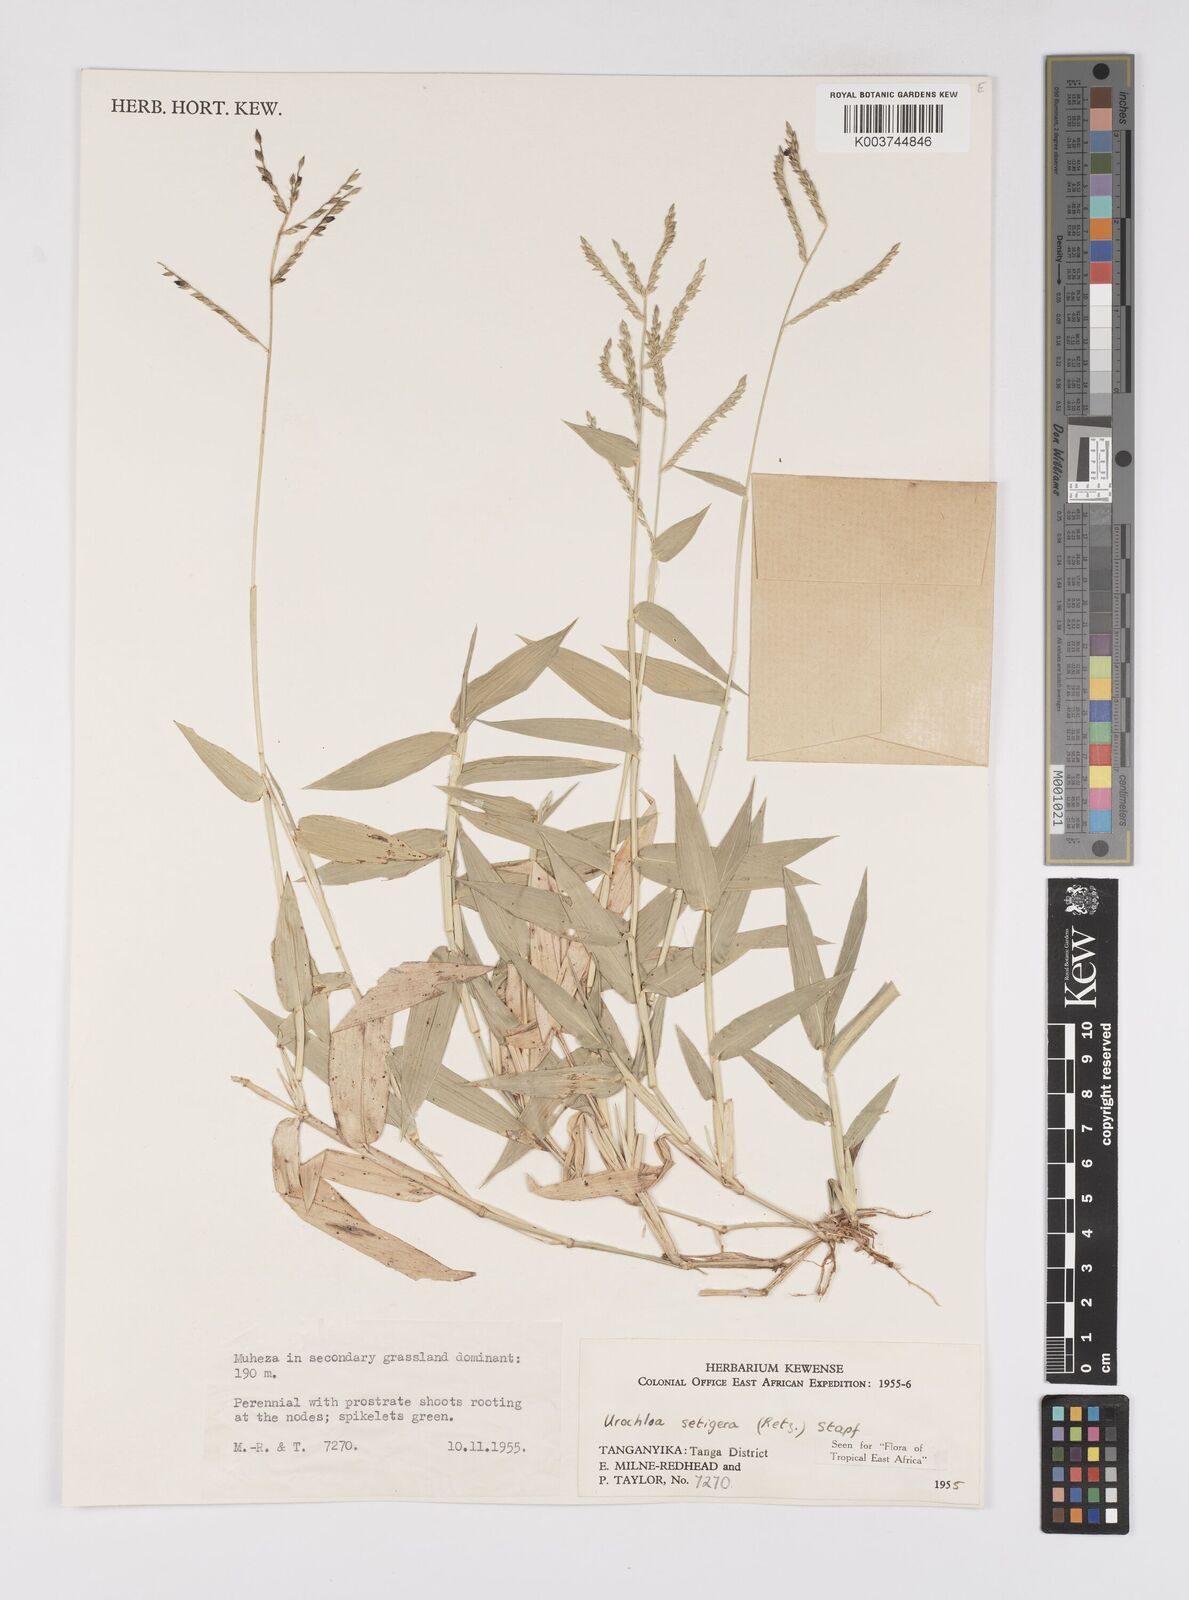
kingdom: Plantae
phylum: Tracheophyta
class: Liliopsida
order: Poales
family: Poaceae
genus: Urochloa
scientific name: Urochloa trichopodioides
